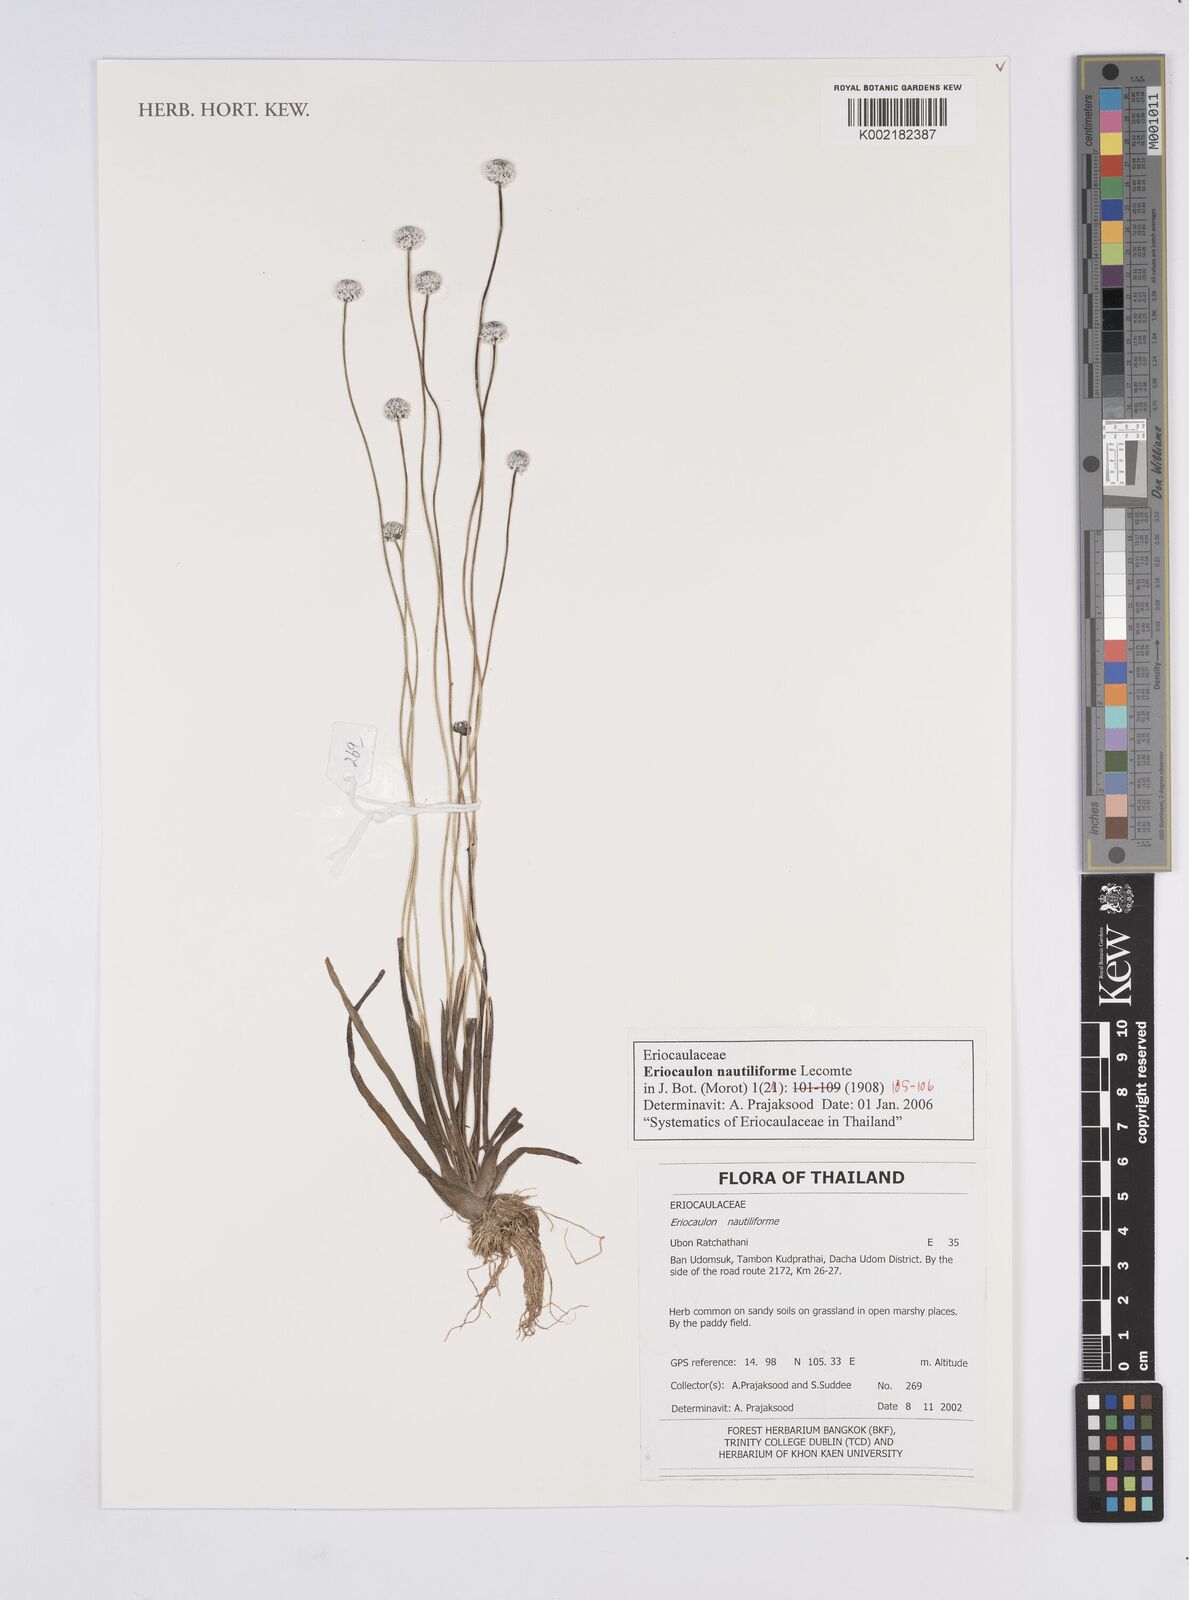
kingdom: Plantae
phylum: Tracheophyta
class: Liliopsida
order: Poales
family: Eriocaulaceae
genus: Eriocaulon
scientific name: Eriocaulon nautiliforme
